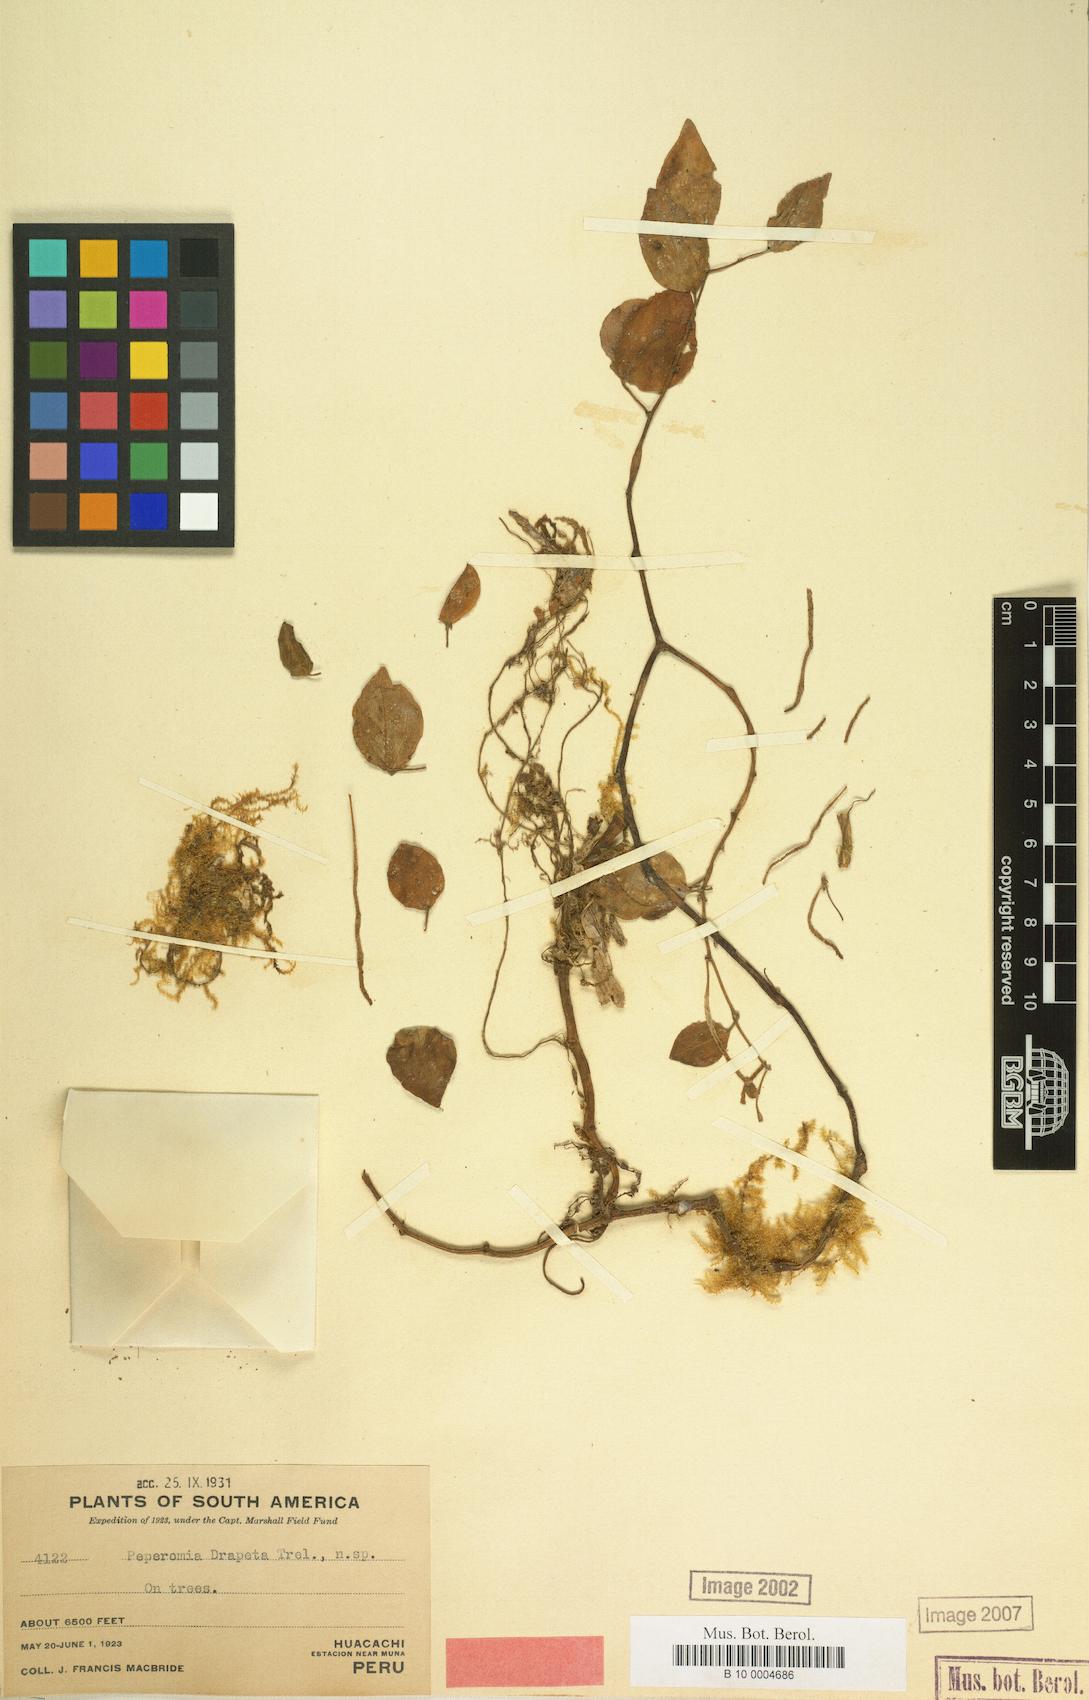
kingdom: Plantae
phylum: Tracheophyta
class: Magnoliopsida
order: Piperales
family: Piperaceae
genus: Peperomia
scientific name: Peperomia drapeta
